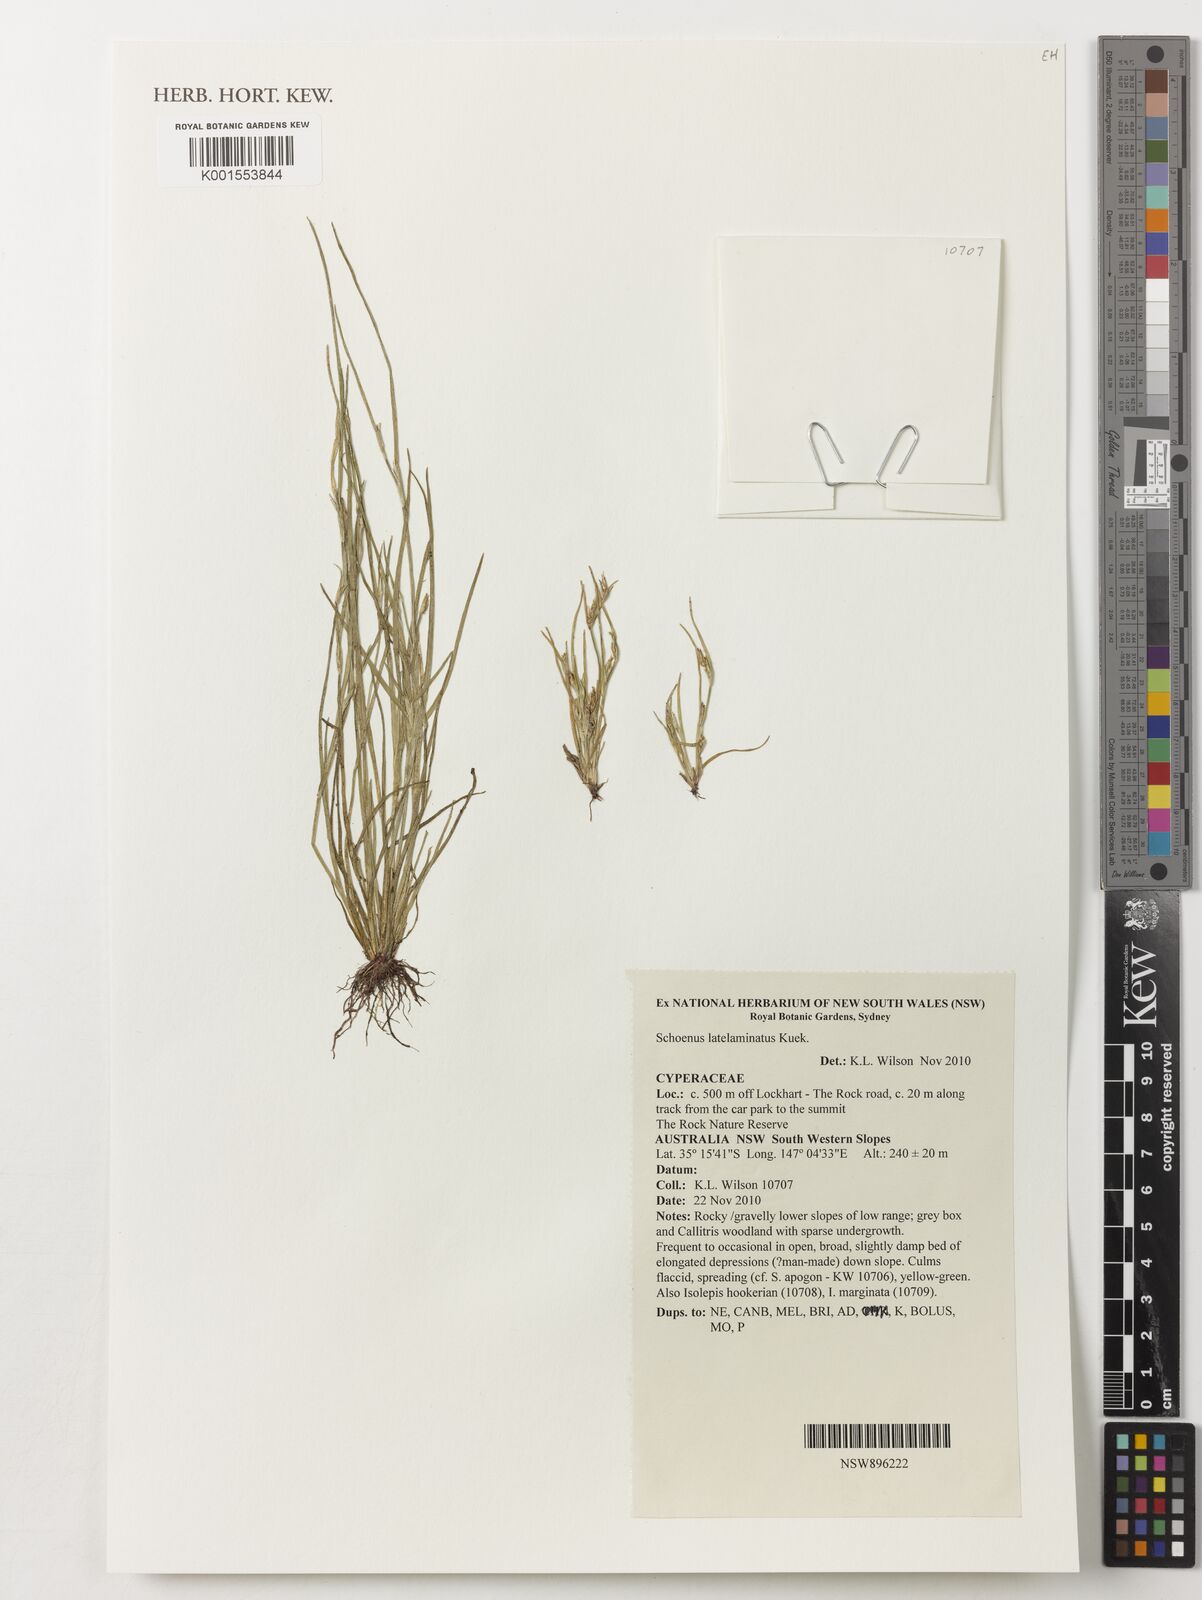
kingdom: Plantae
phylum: Tracheophyta
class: Liliopsida
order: Poales
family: Cyperaceae
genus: Schoenus
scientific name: Schoenus latelaminatus
